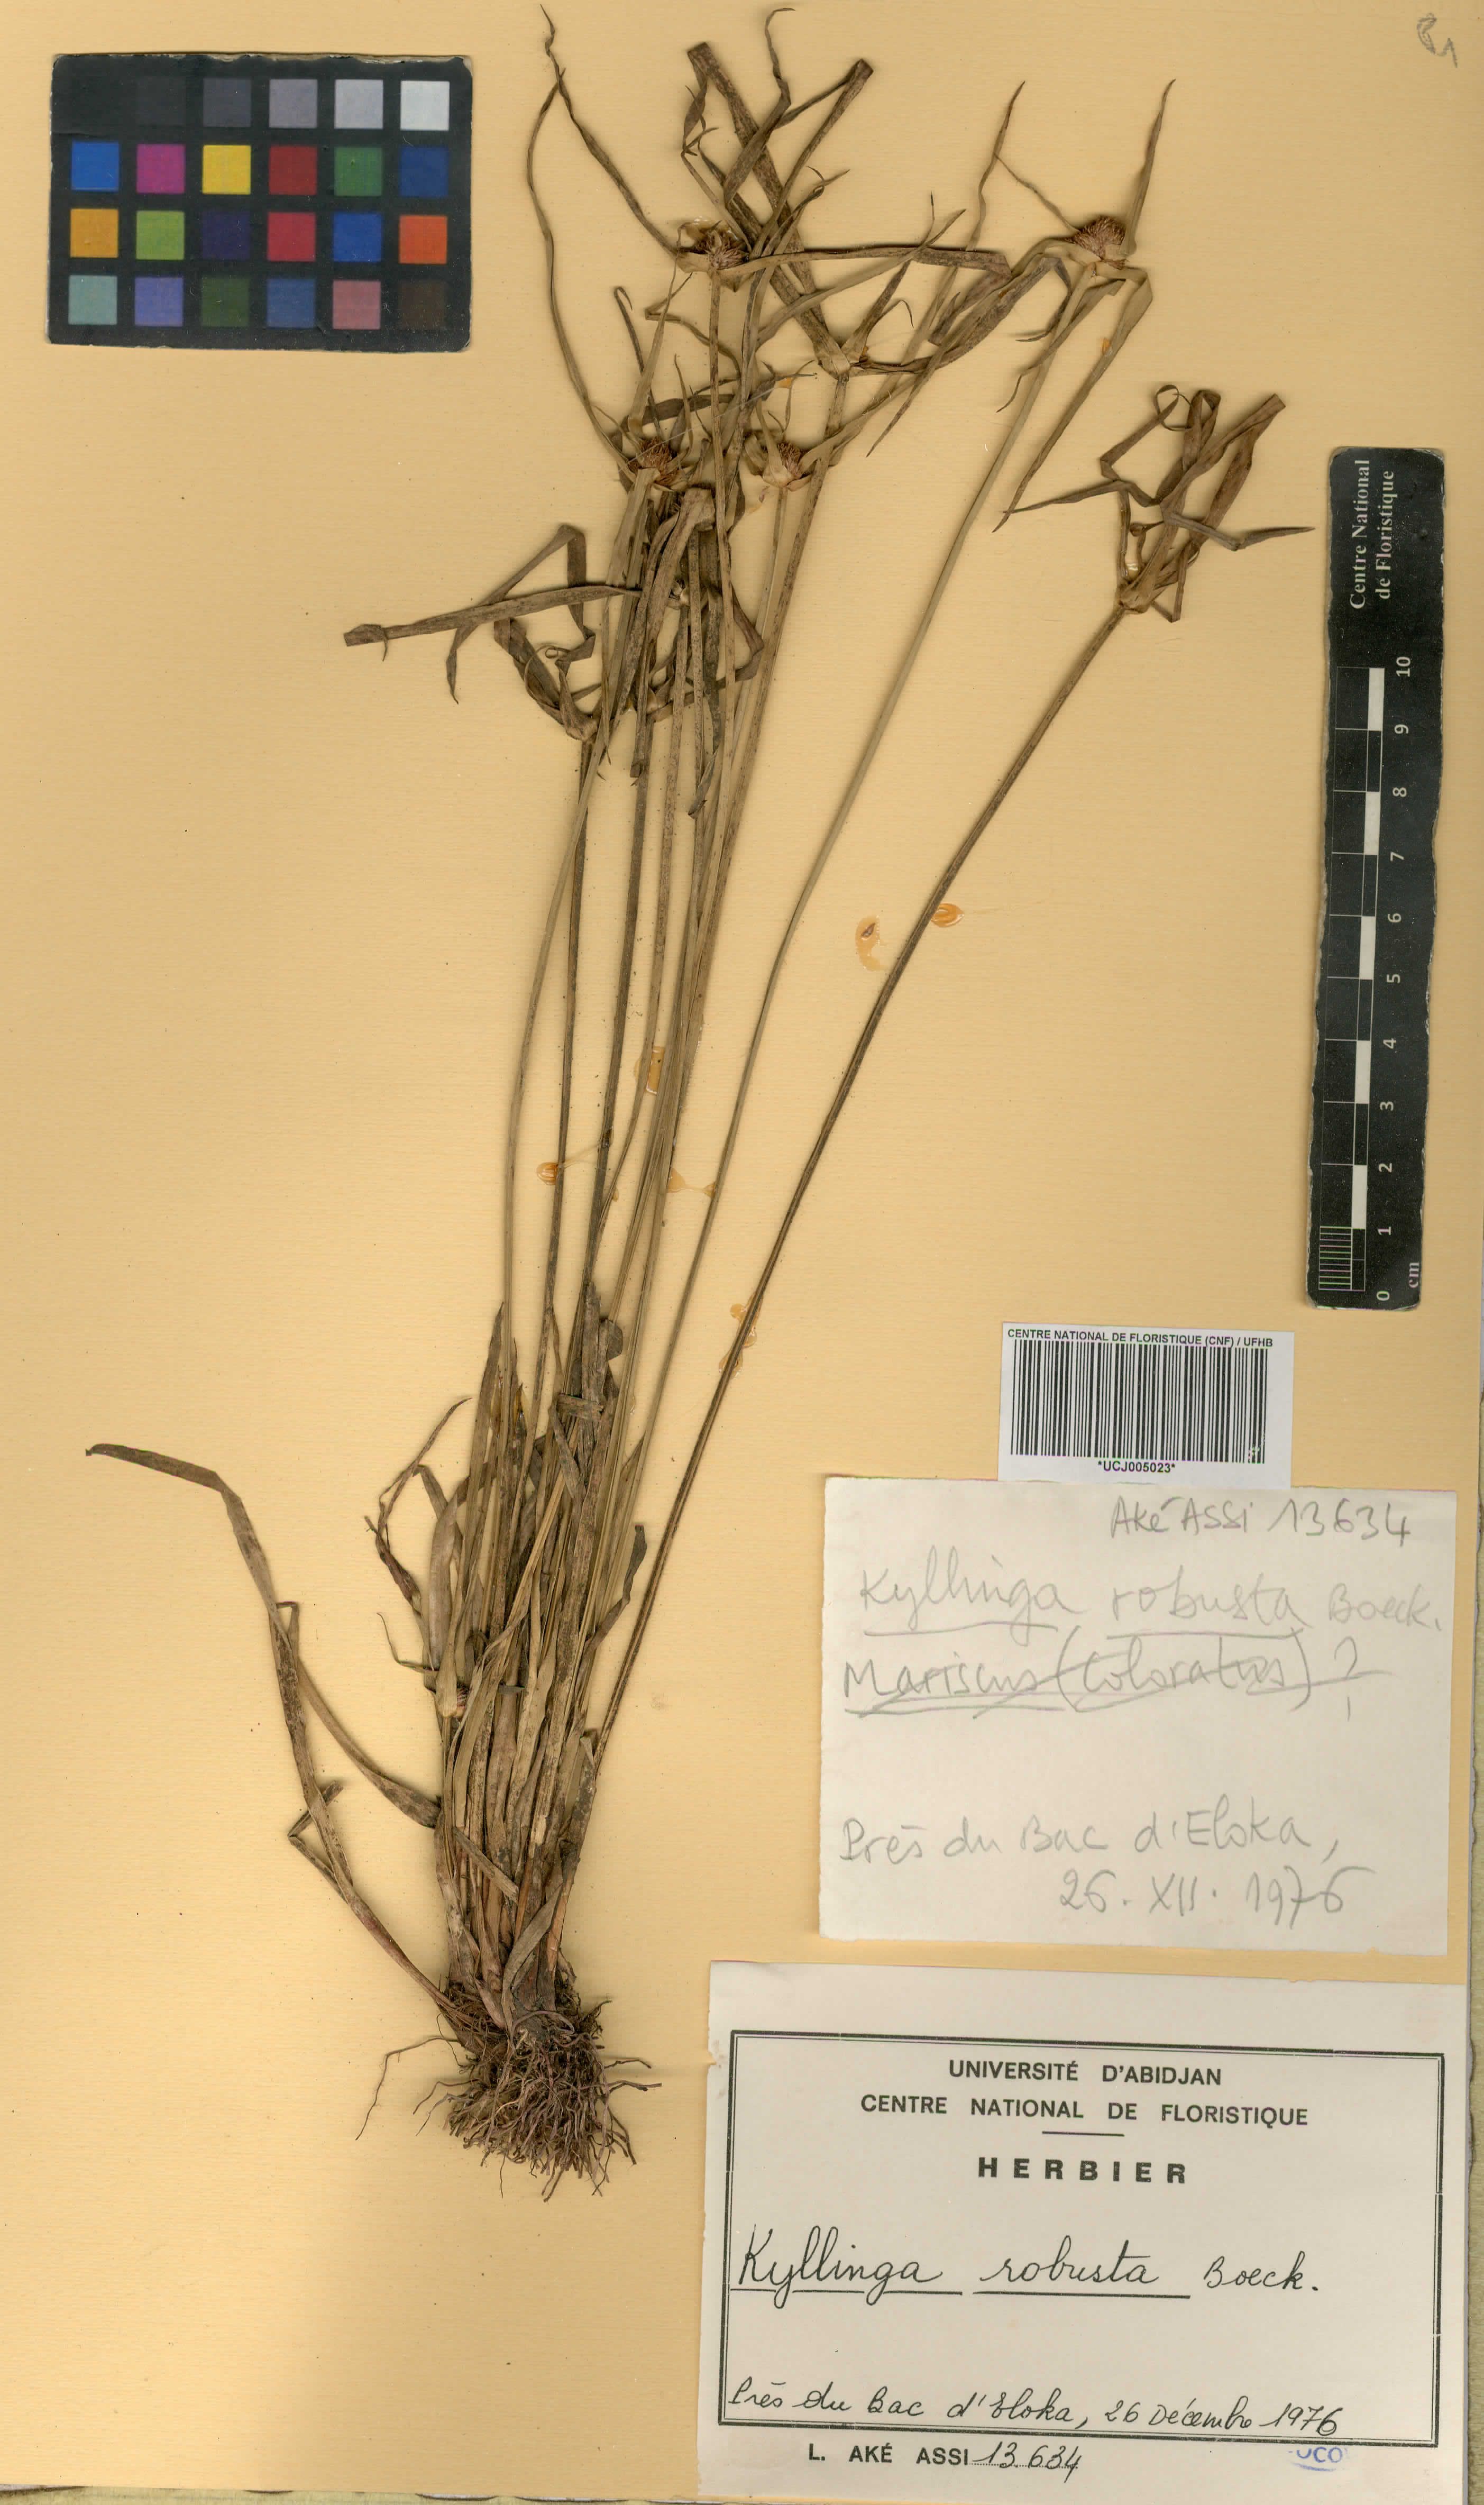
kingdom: Plantae
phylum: Tracheophyta
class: Liliopsida
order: Poales
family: Cyperaceae
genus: Cyperus
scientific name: Cyperus afrorobustus
